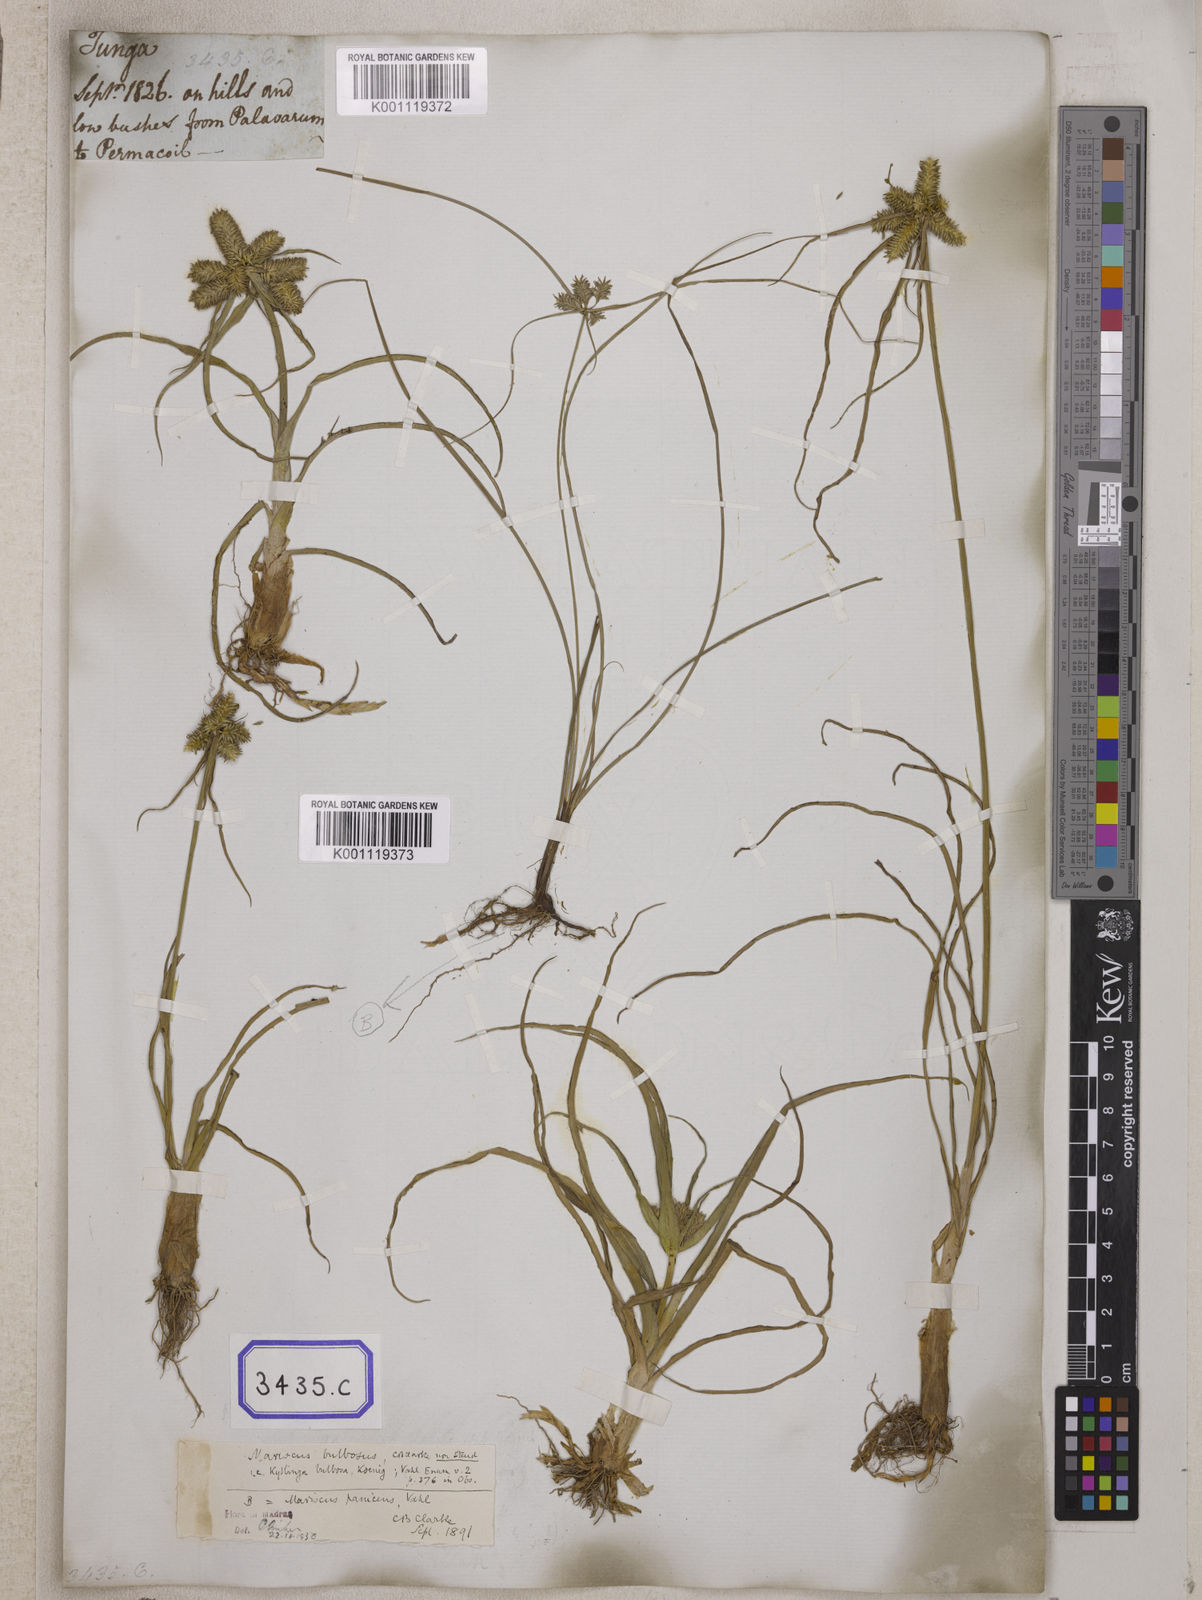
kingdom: Plantae
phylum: Tracheophyta
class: Liliopsida
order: Poales
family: Cyperaceae
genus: Mariscus
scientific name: Mariscus
